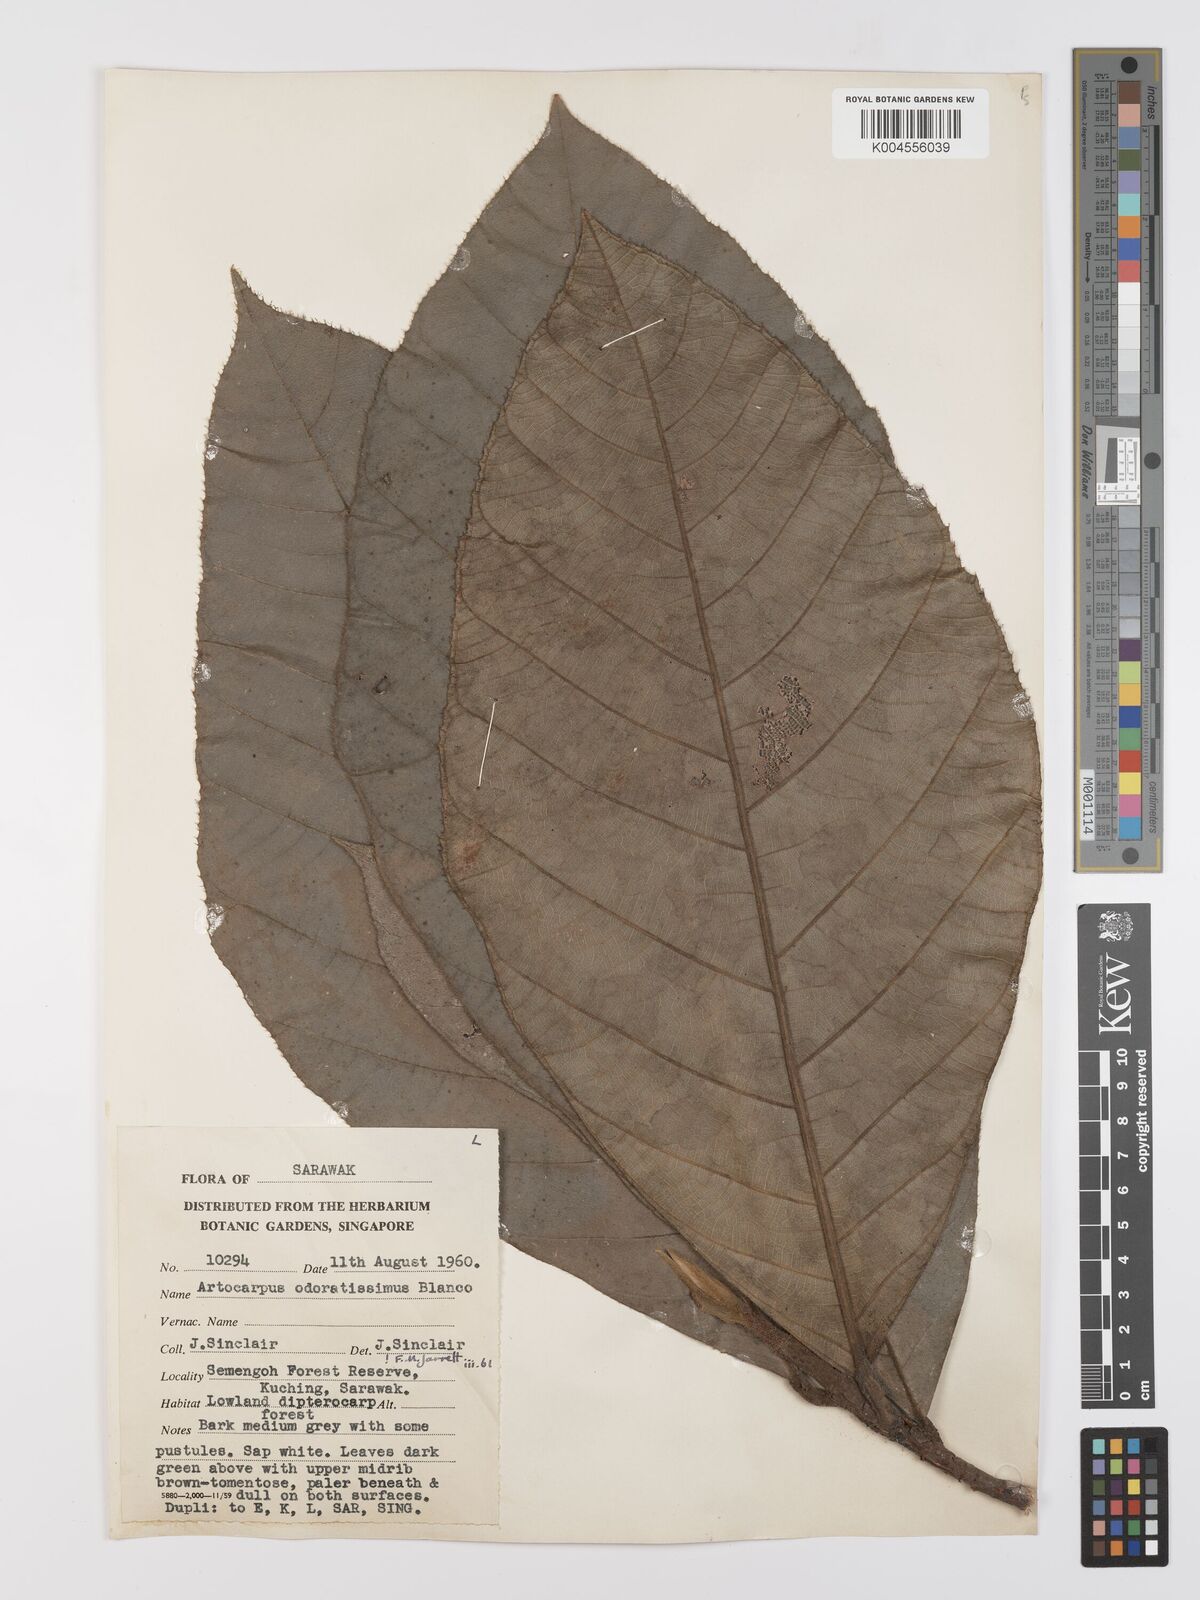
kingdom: Plantae
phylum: Tracheophyta
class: Magnoliopsida
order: Rosales
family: Moraceae
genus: Artocarpus
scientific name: Artocarpus odoratissimus
